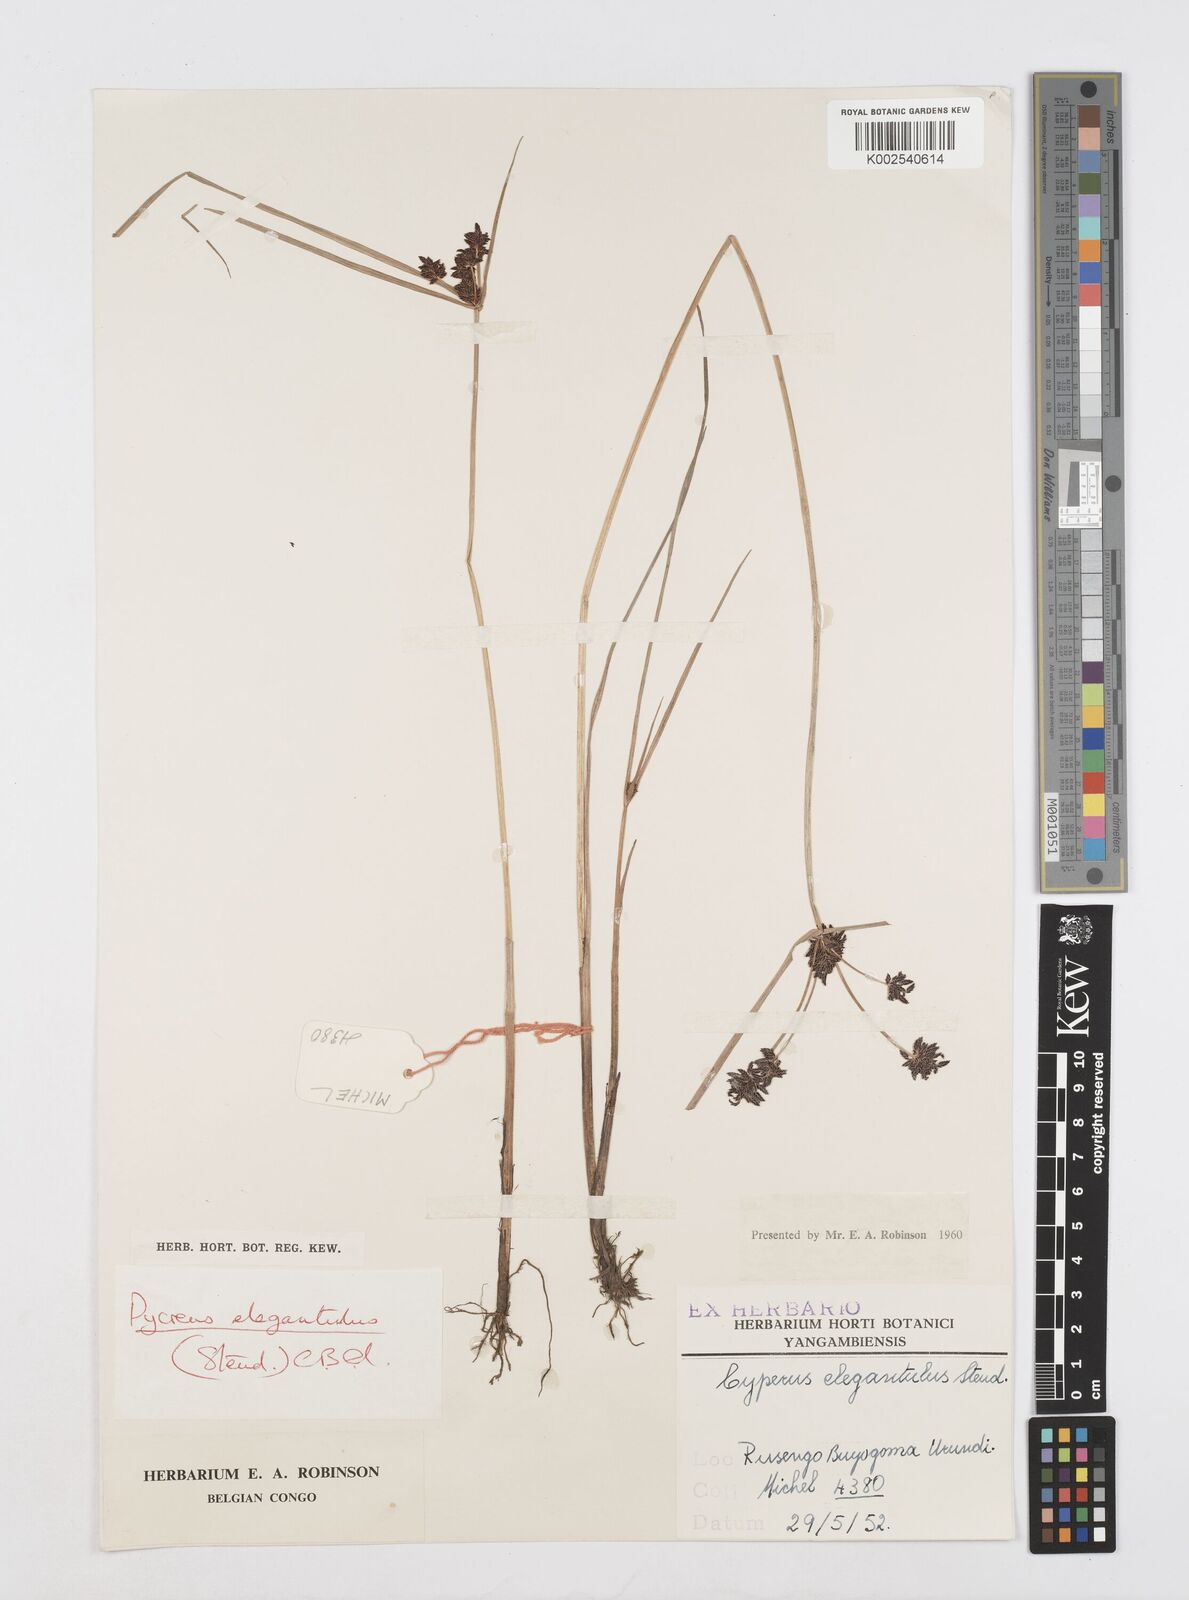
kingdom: Plantae
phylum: Tracheophyta
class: Liliopsida
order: Poales
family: Cyperaceae
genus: Cyperus
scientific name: Cyperus elegantulus
